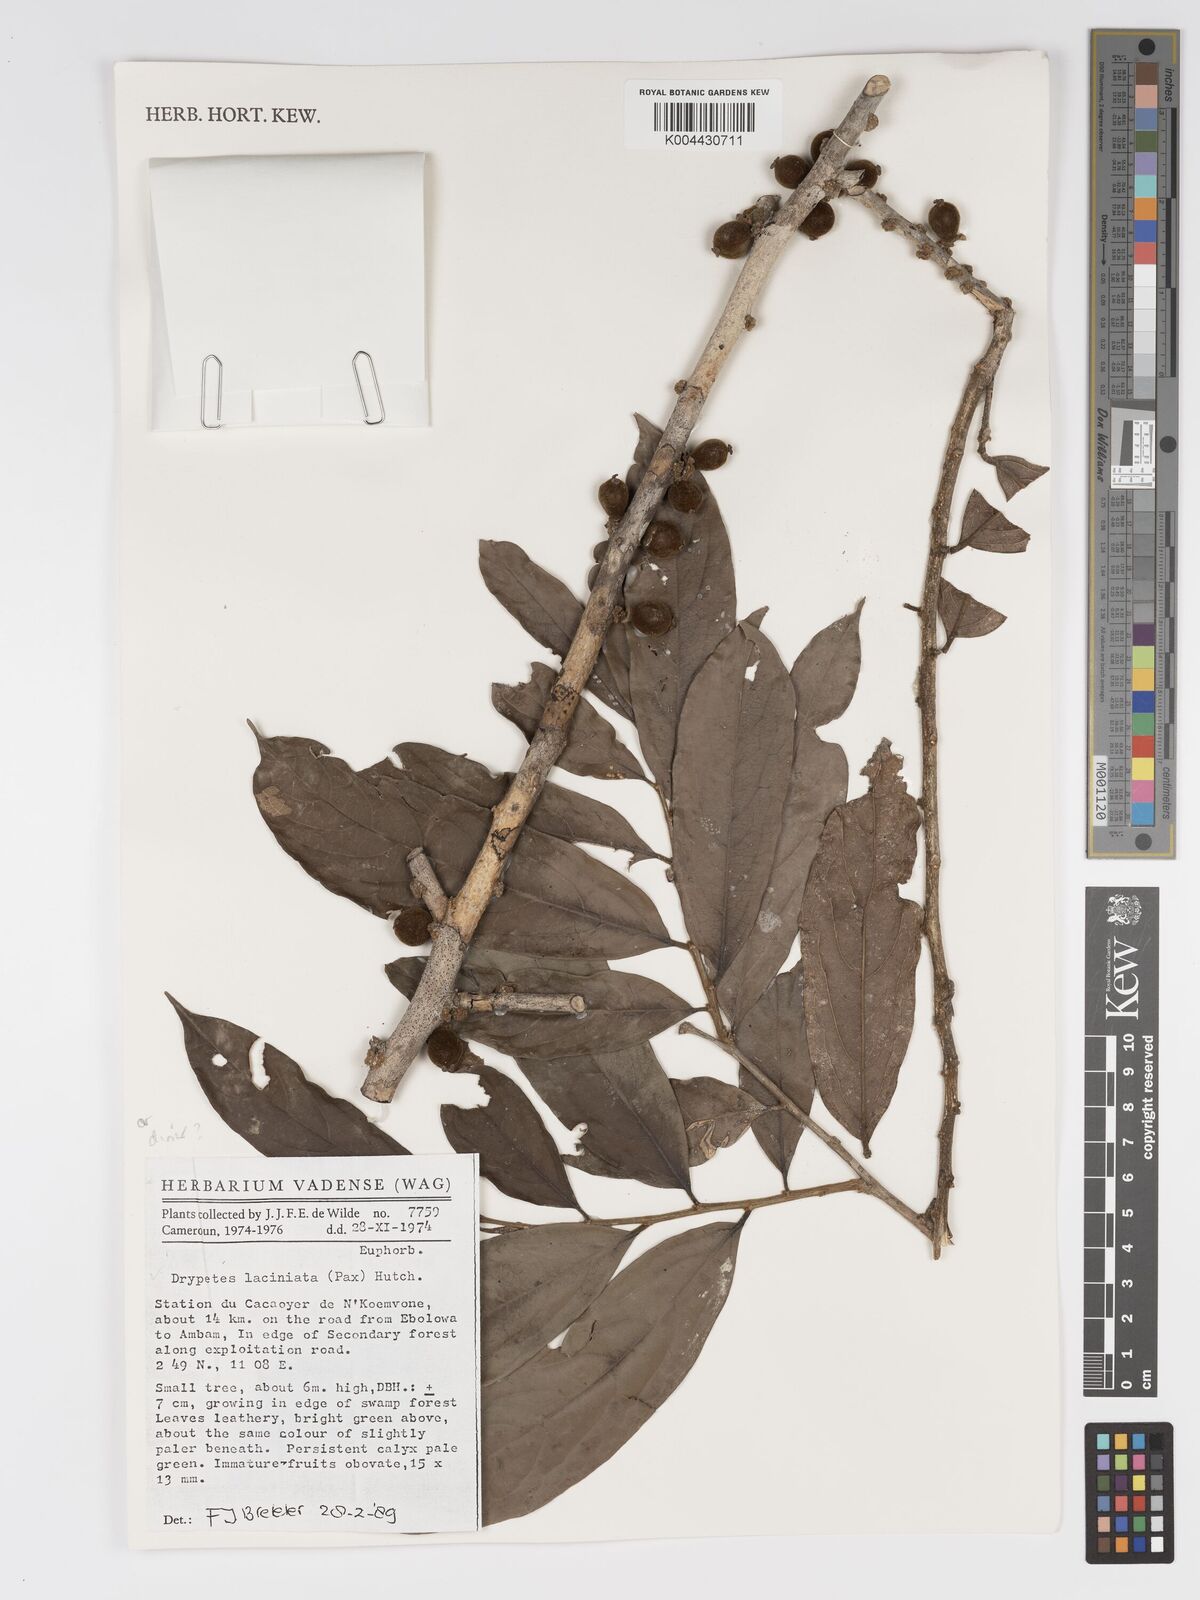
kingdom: Plantae
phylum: Tracheophyta
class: Magnoliopsida
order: Malpighiales
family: Putranjivaceae
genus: Drypetes
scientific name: Drypetes laciniata
